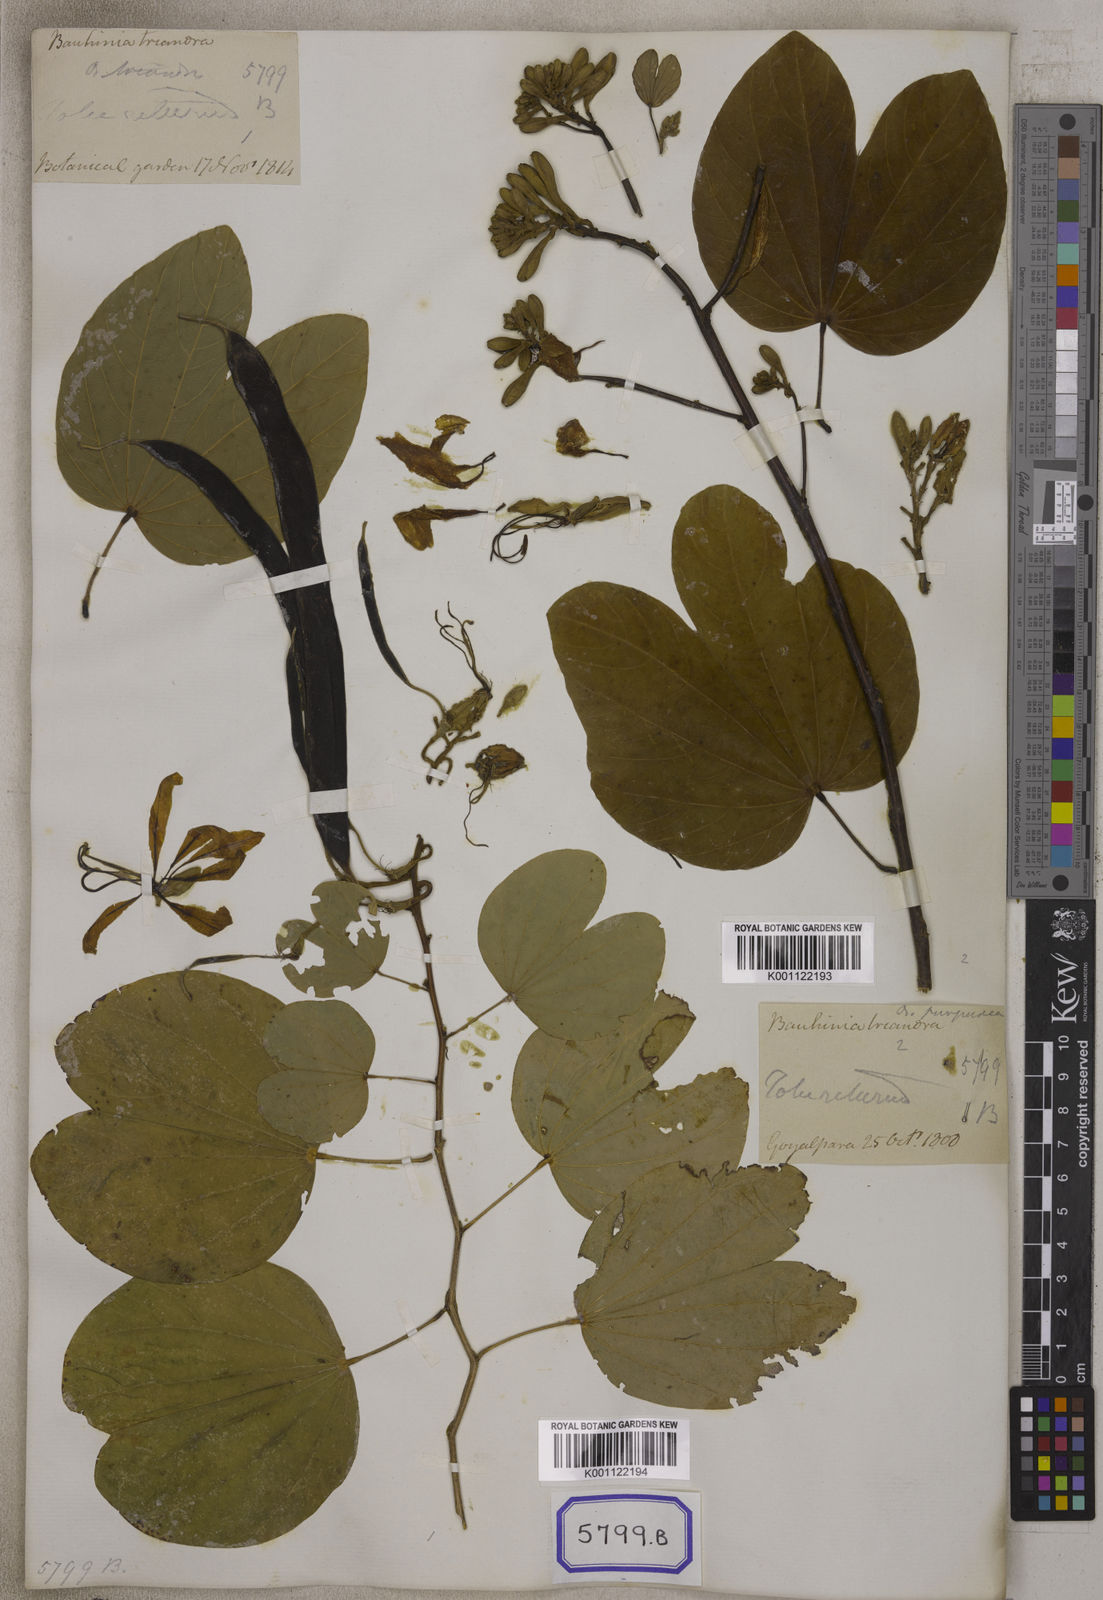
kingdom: Plantae
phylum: Tracheophyta
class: Magnoliopsida
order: Fabales
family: Fabaceae
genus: Bauhinia
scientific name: Bauhinia purpurea
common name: Butterfly-tree
